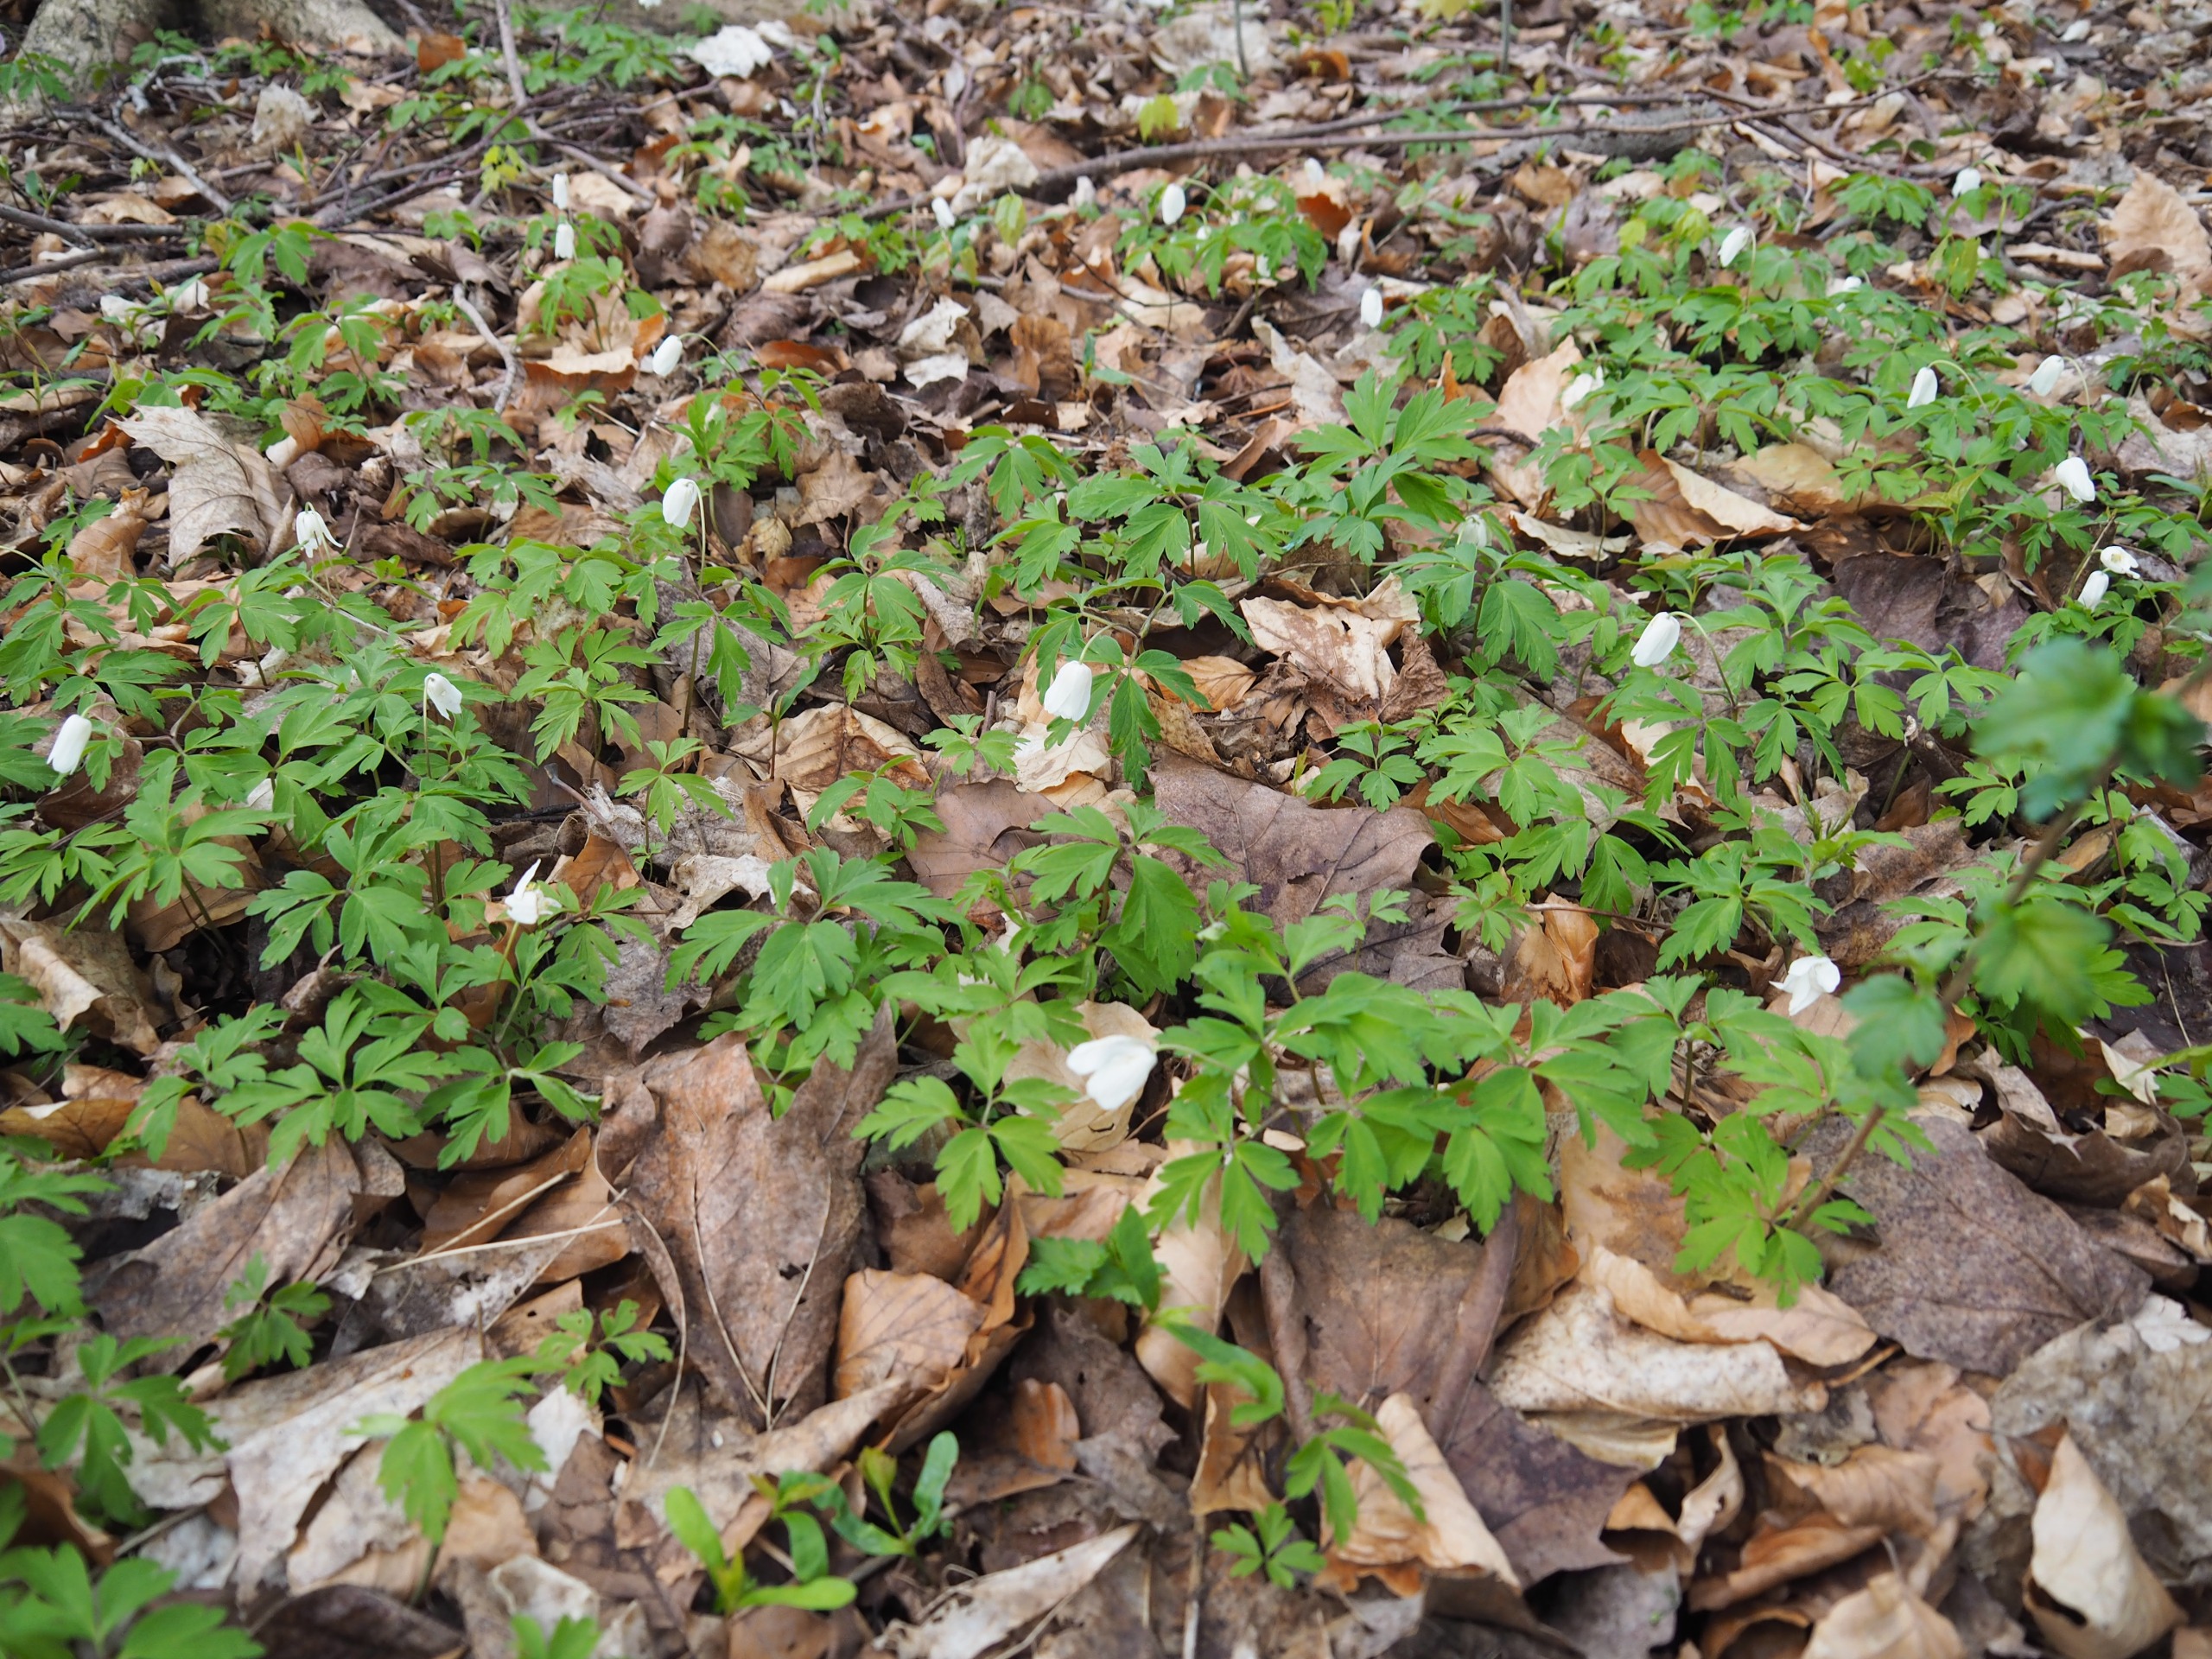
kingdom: Plantae
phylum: Tracheophyta
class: Magnoliopsida
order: Ranunculales
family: Ranunculaceae
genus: Anemone
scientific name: Anemone nemorosa
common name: Hvid anemone
